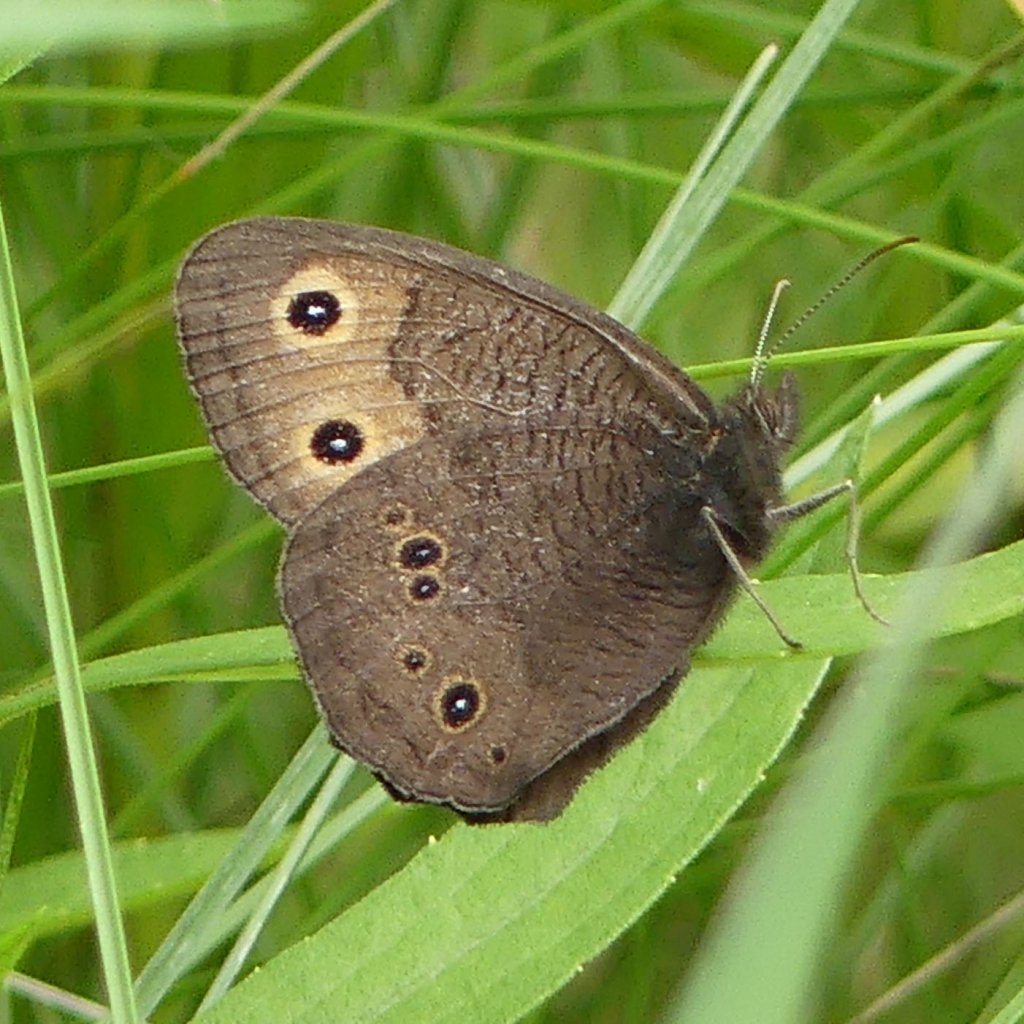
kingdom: Animalia
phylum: Arthropoda
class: Insecta
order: Lepidoptera
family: Nymphalidae
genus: Cercyonis
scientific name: Cercyonis pegala
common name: Common Wood-Nymph
